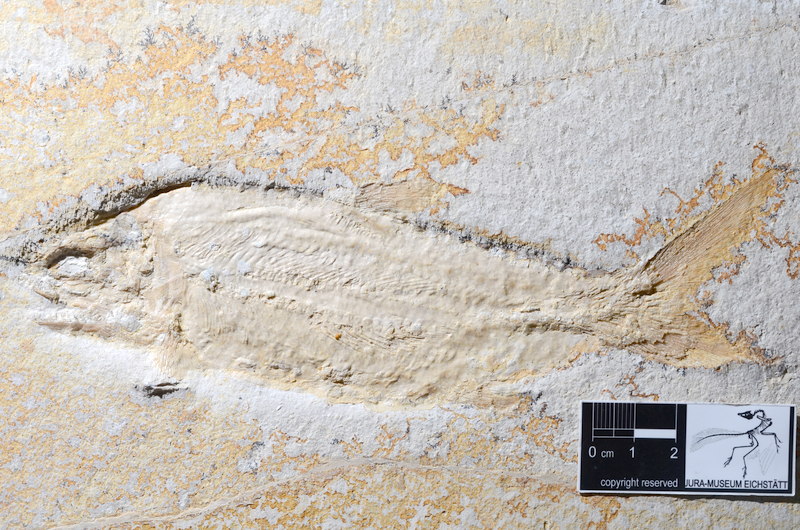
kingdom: Animalia
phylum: Chordata
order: Amiiformes
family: Caturidae
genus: Caturus
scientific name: Caturus furcatus
